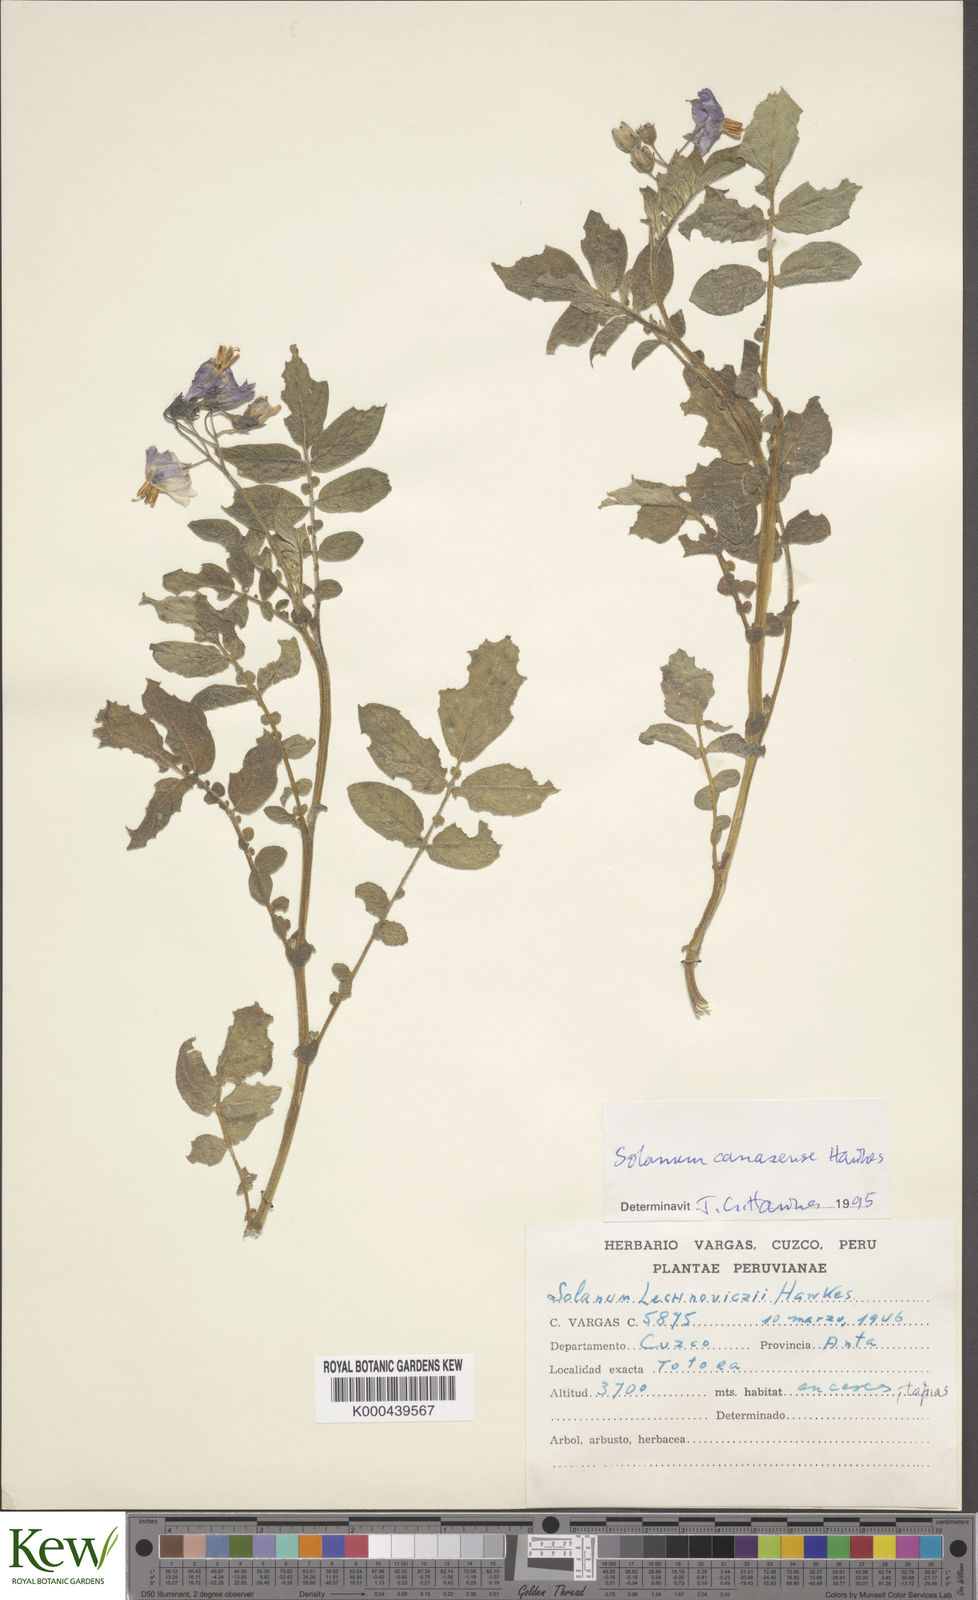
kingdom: Plantae
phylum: Tracheophyta
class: Magnoliopsida
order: Solanales
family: Solanaceae
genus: Solanum
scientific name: Solanum candolleanum
